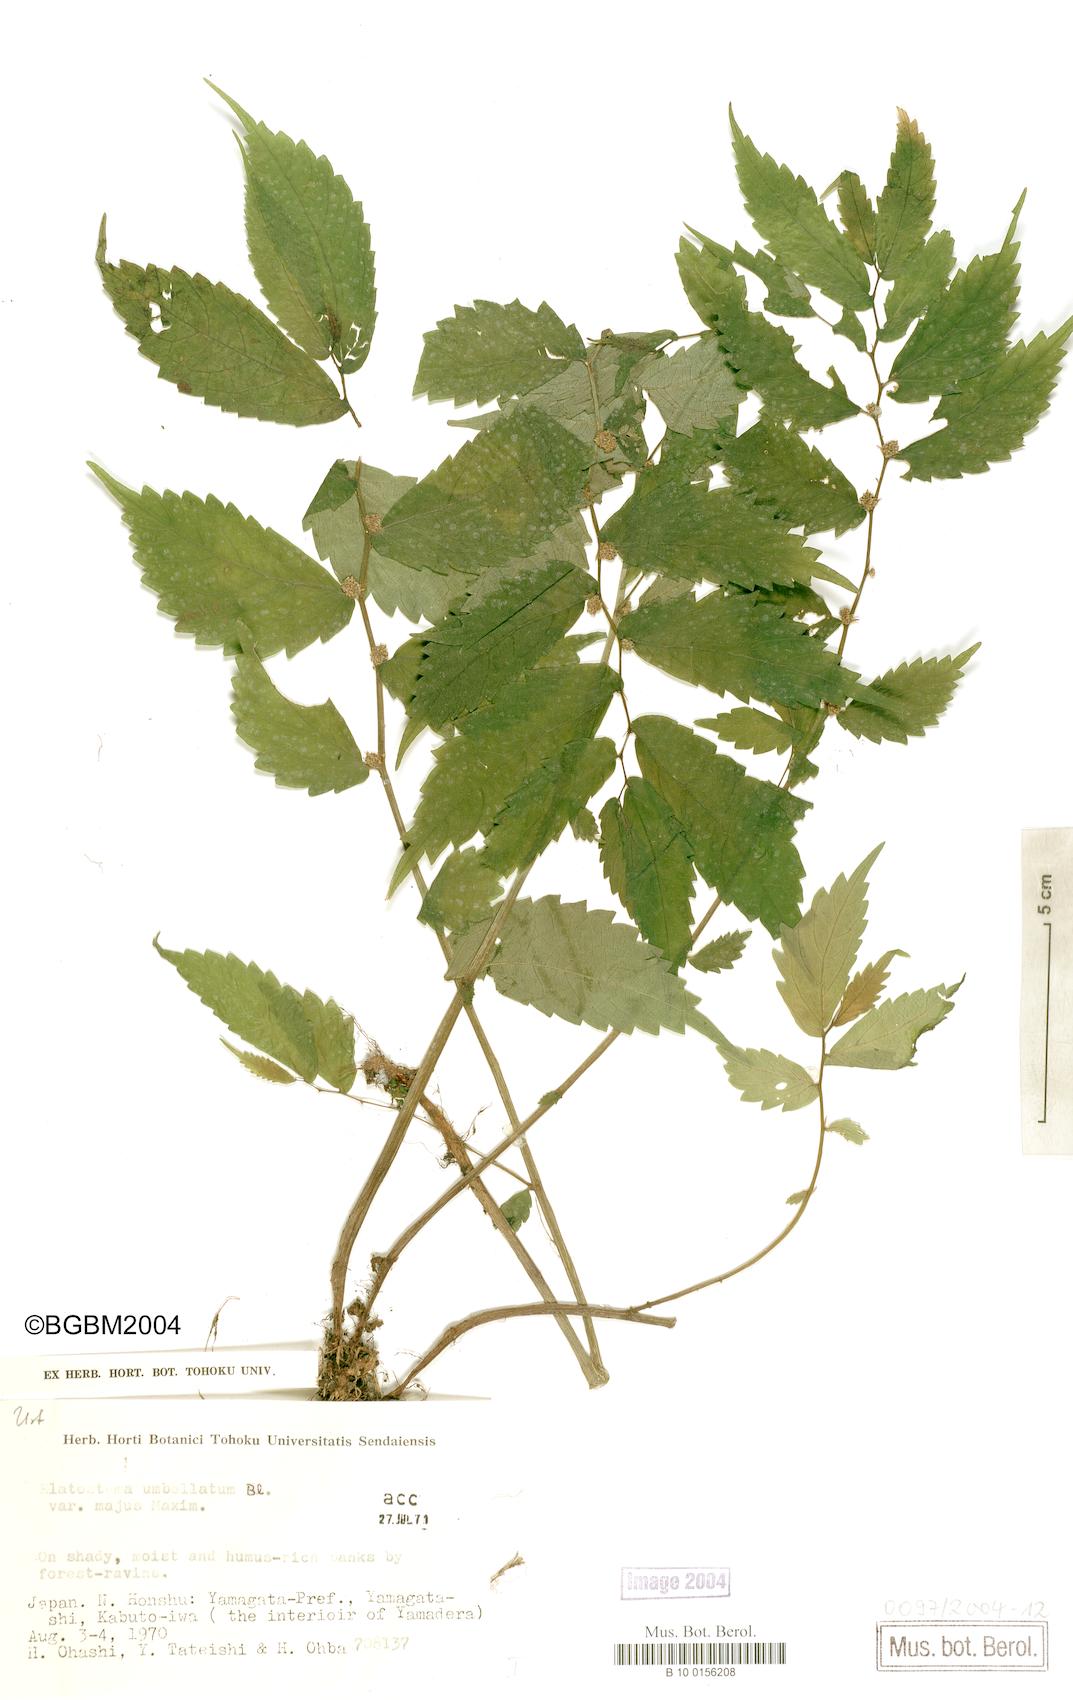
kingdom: Plantae
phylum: Tracheophyta
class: Magnoliopsida
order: Rosales
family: Urticaceae
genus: Elatostema
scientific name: Elatostema involucratum
